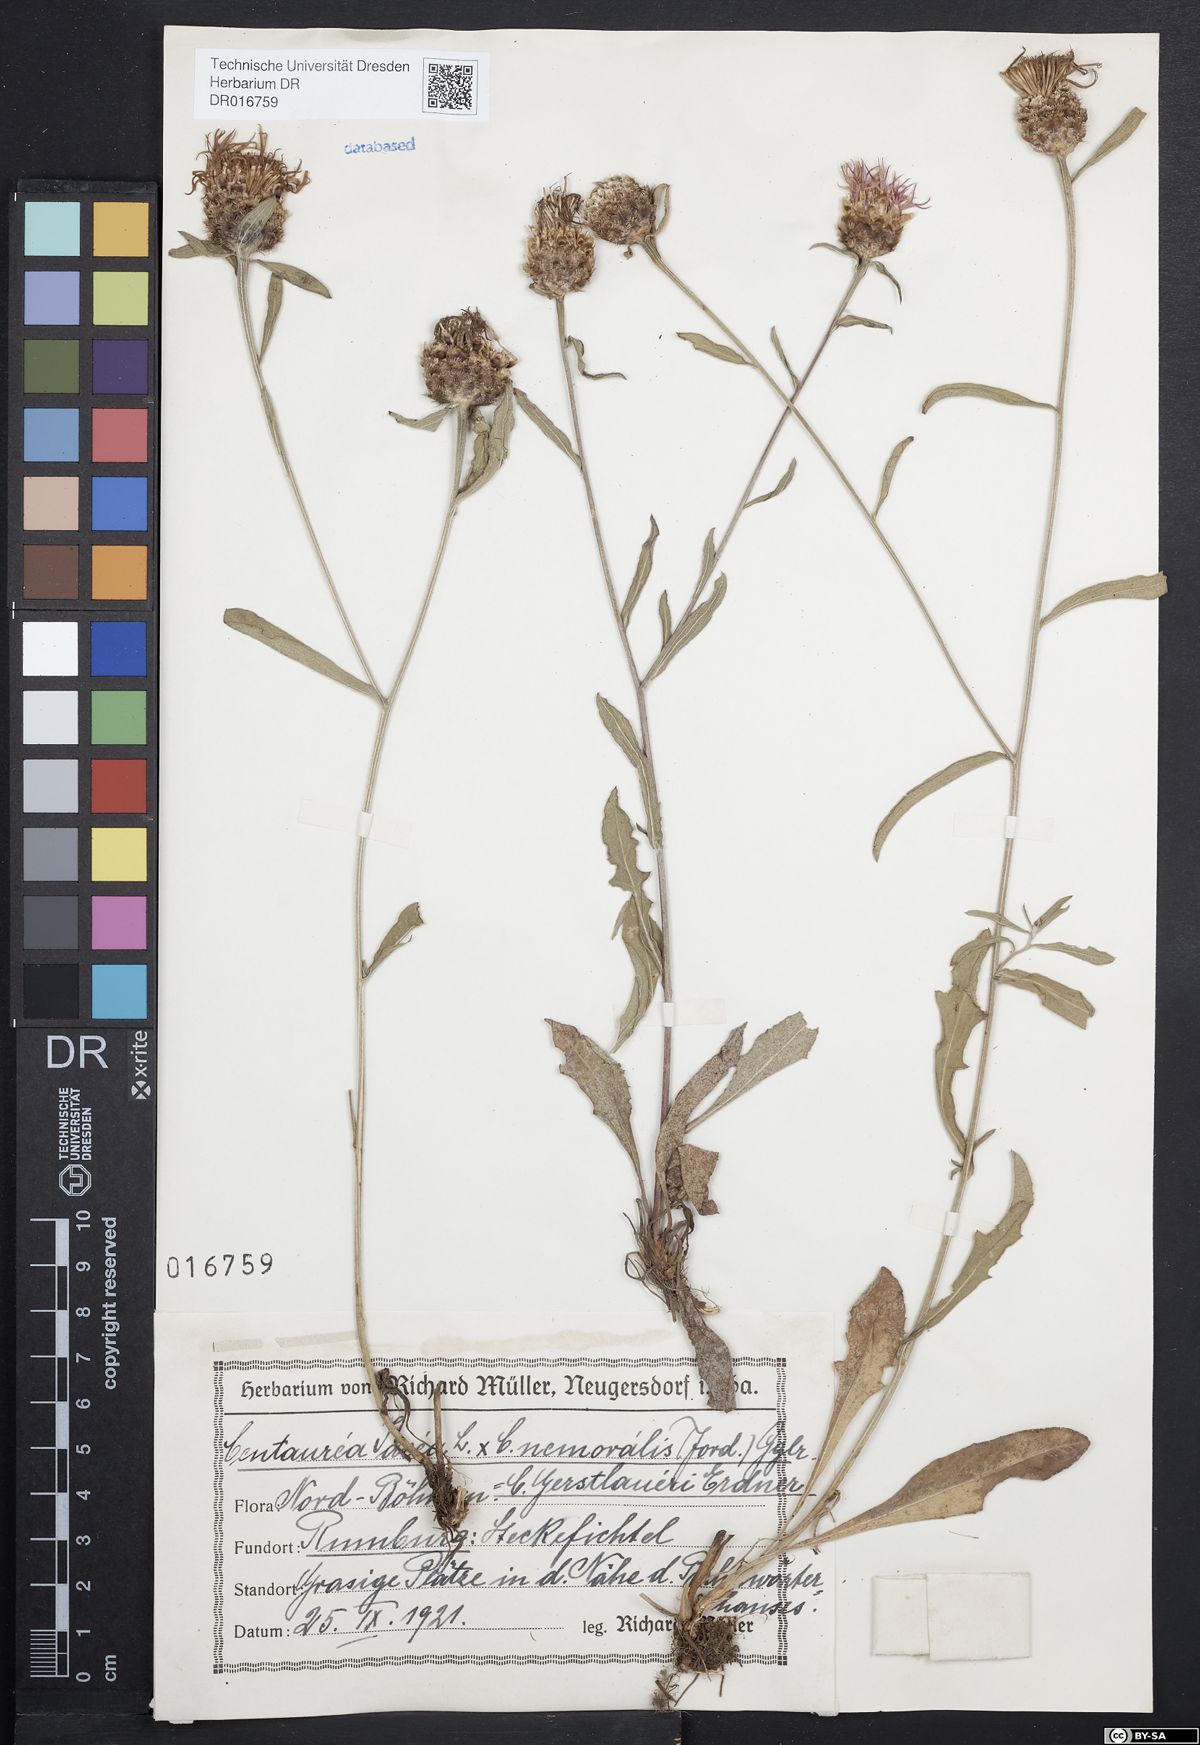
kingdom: Plantae
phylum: Tracheophyta
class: Magnoliopsida
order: Asterales
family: Asteraceae
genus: Centaurea
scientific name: Centaurea jacea
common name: Brown knapweed
